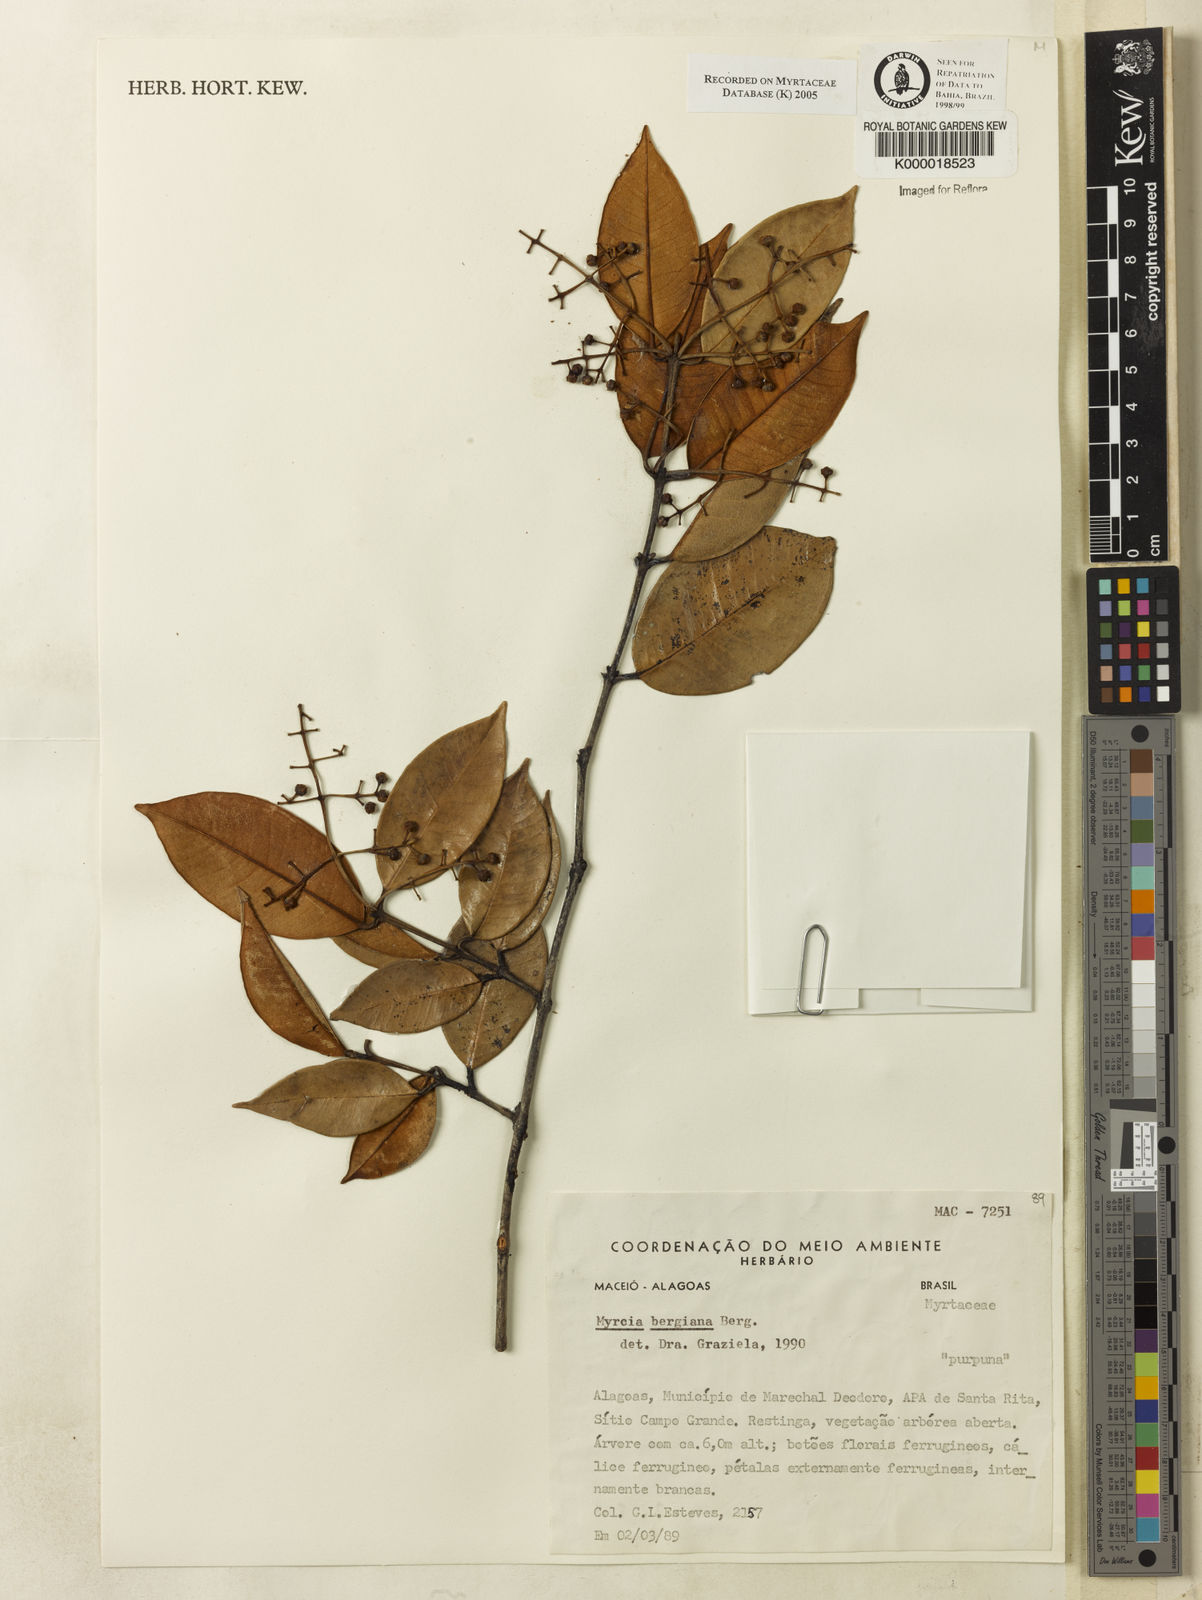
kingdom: Plantae
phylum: Tracheophyta
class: Magnoliopsida
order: Myrtales
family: Myrtaceae
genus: Myrcia
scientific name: Myrcia bergiana
